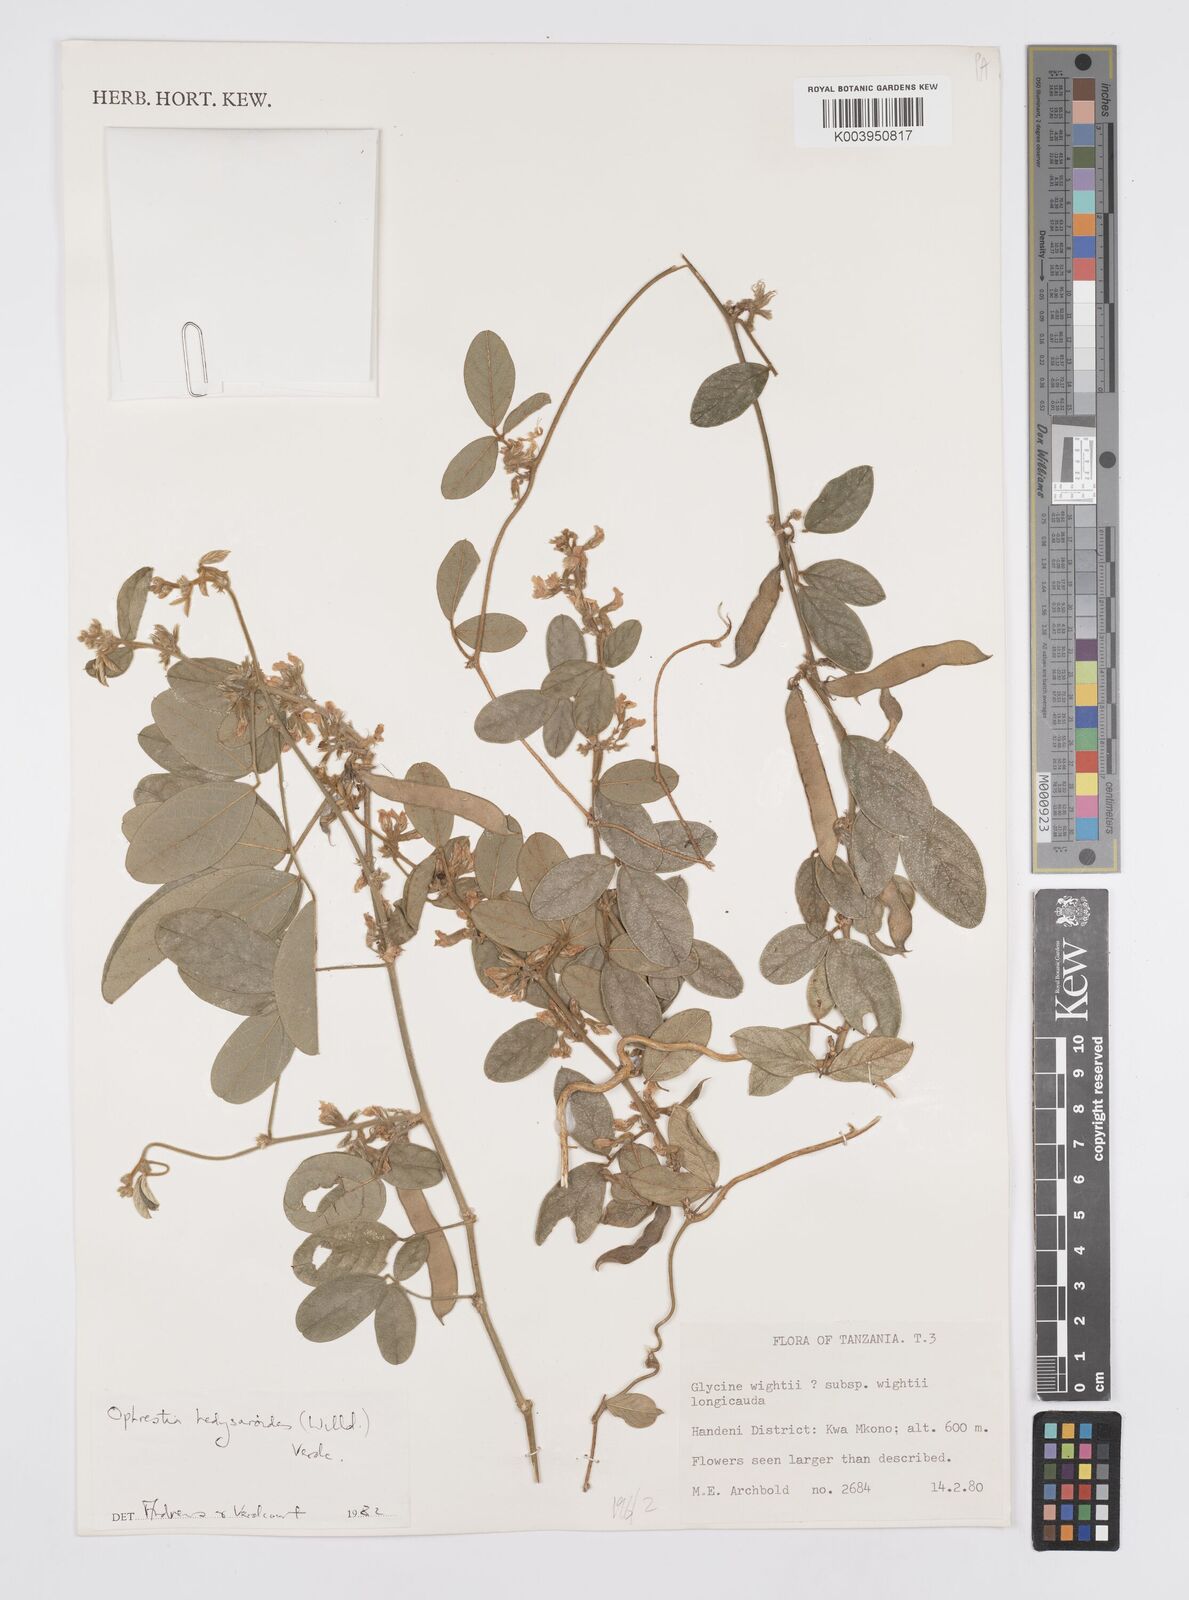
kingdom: Plantae
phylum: Tracheophyta
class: Magnoliopsida
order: Fabales
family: Fabaceae
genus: Ophrestia
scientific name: Ophrestia hedysaroides
